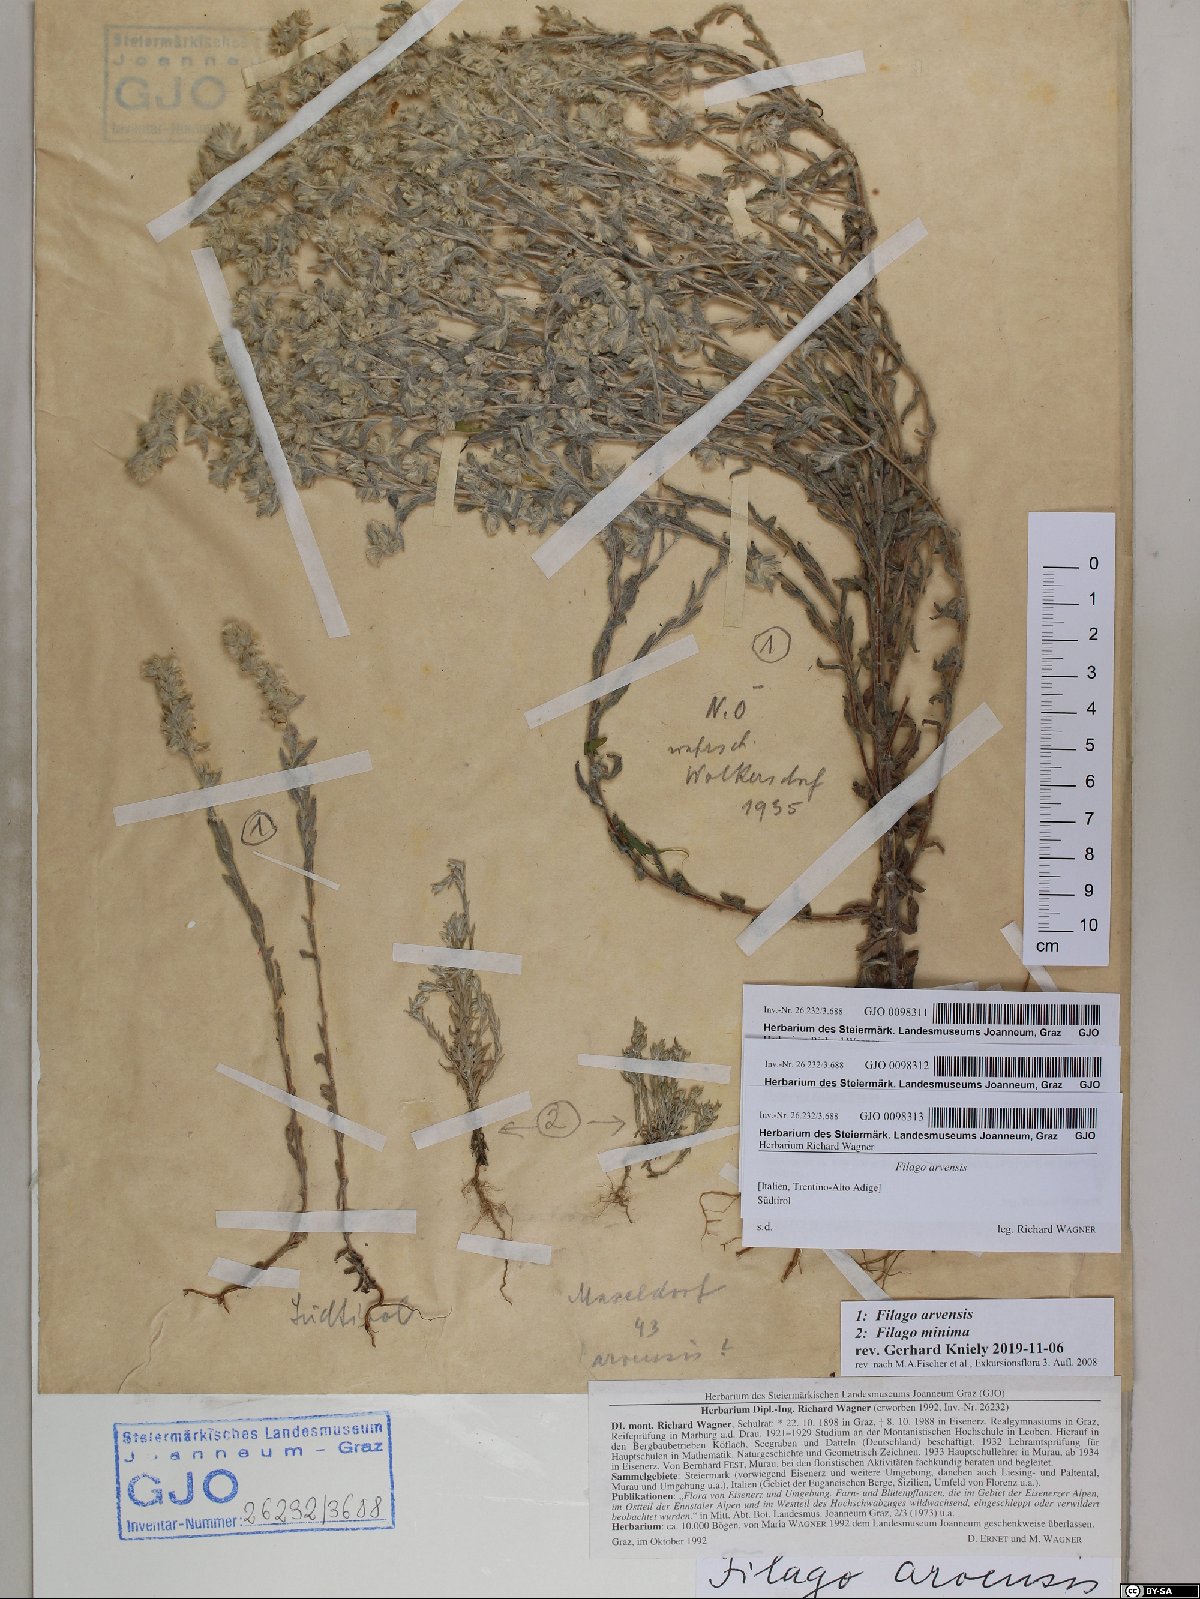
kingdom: Plantae
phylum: Tracheophyta
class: Magnoliopsida
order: Asterales
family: Asteraceae
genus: Logfia
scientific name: Logfia minima
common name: Little cottonrose
